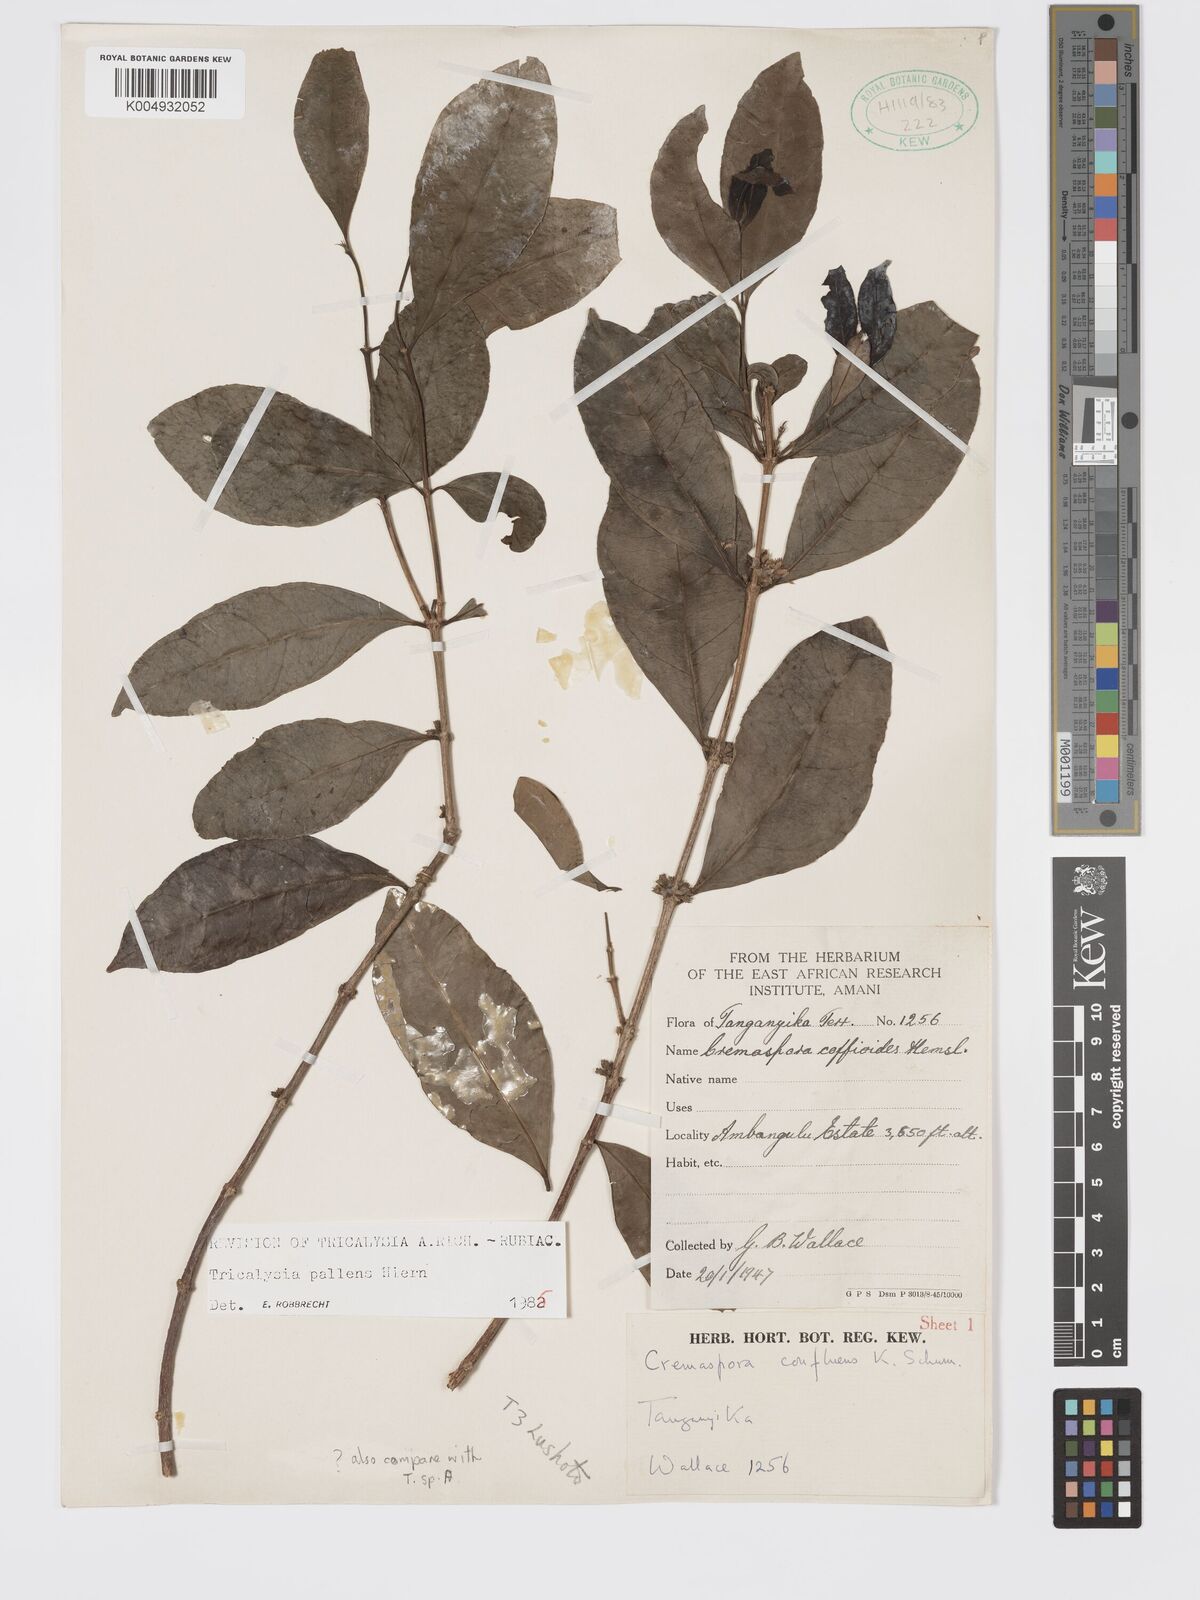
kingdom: Plantae
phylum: Tracheophyta
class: Magnoliopsida
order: Gentianales
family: Rubiaceae
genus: Tricalysia
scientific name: Tricalysia pallens
